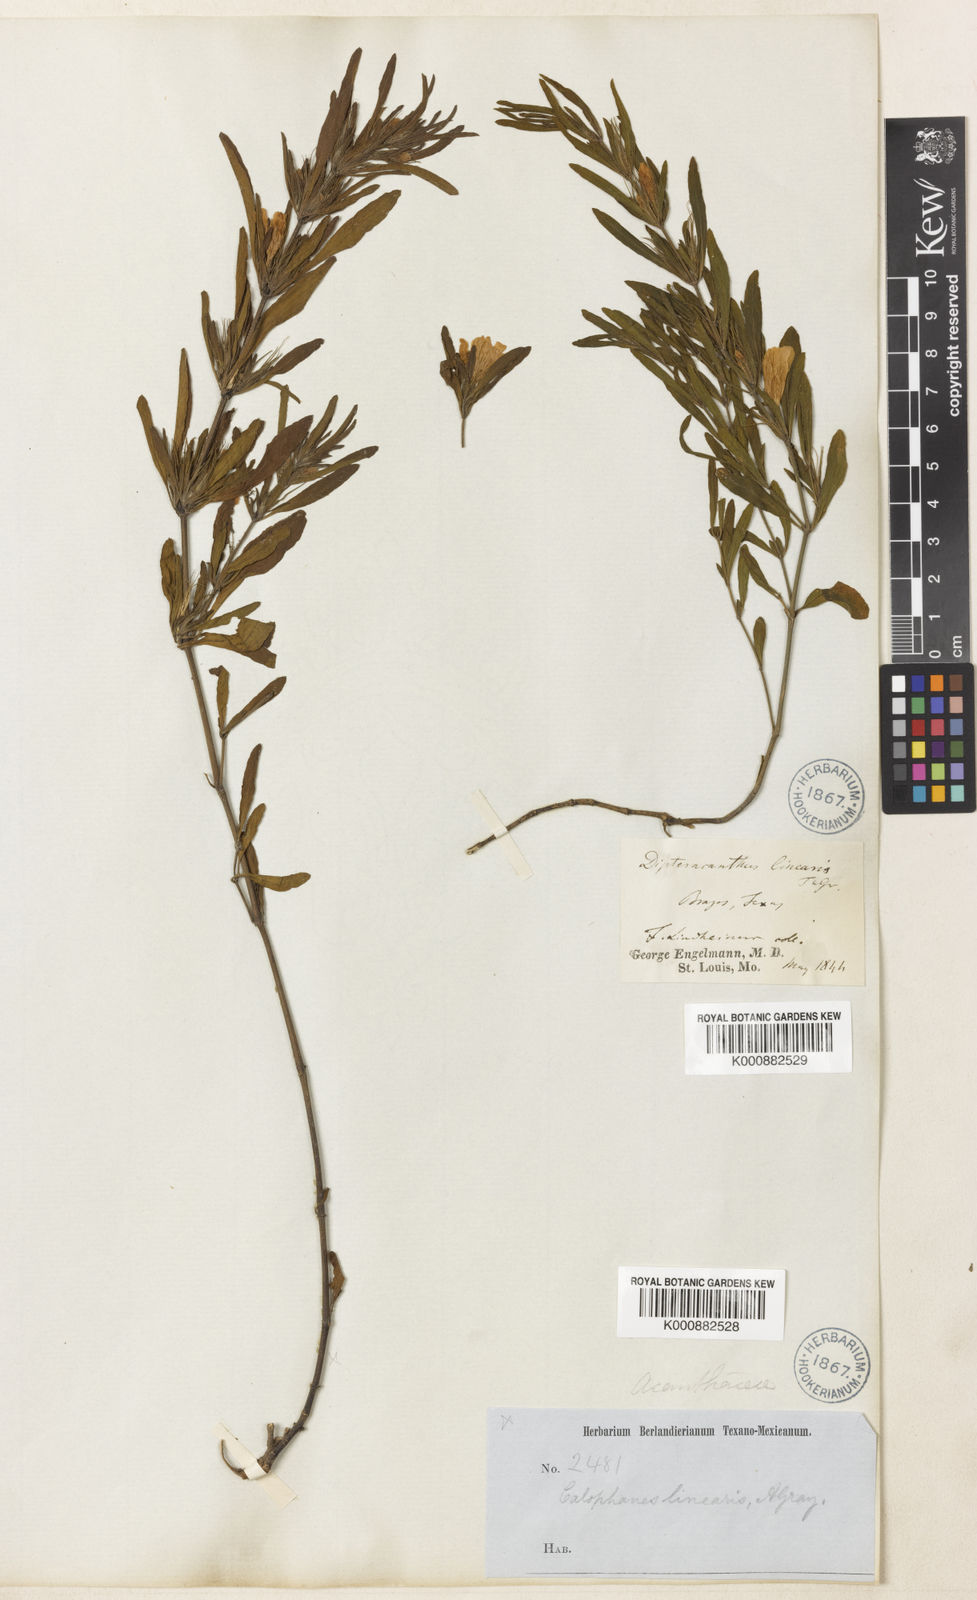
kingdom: Plantae
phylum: Tracheophyta
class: Magnoliopsida
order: Lamiales
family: Acanthaceae
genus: Dyschoriste
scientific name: Dyschoriste linearis
